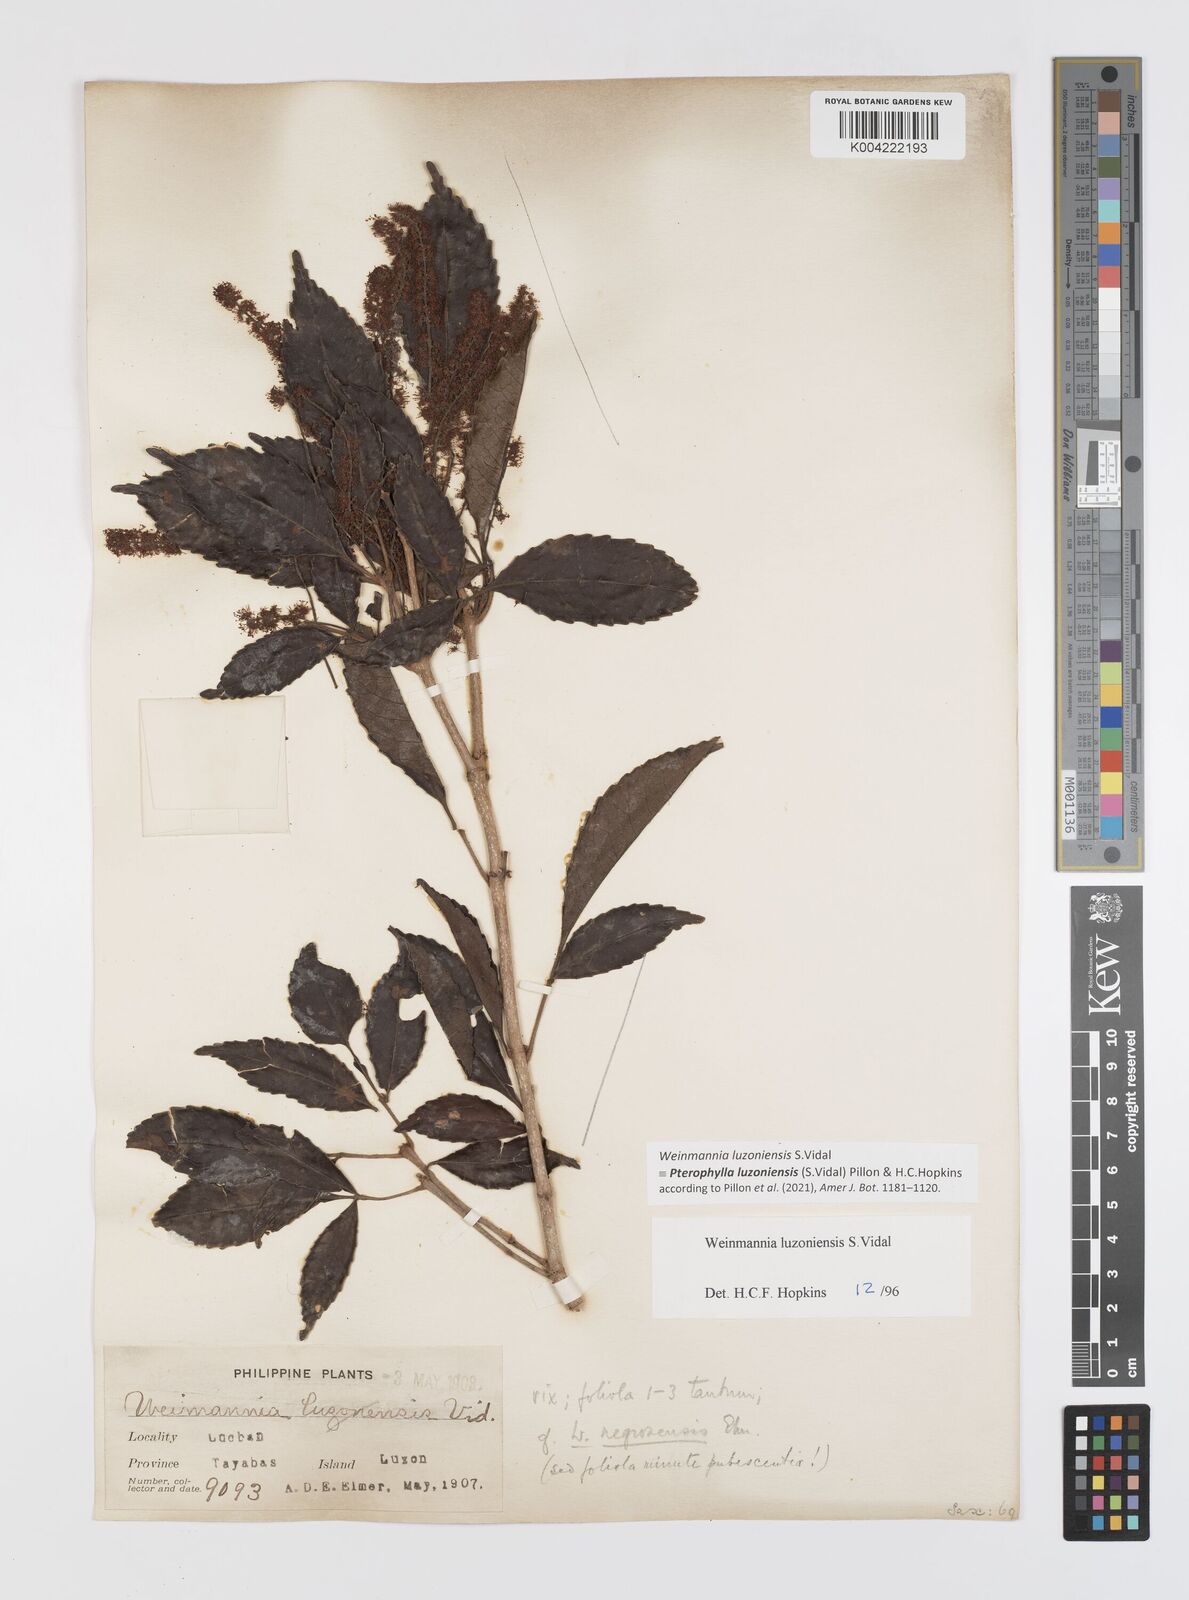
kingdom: Plantae
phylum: Tracheophyta
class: Magnoliopsida
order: Oxalidales
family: Cunoniaceae
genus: Pterophylla
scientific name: Pterophylla luzoniensis
